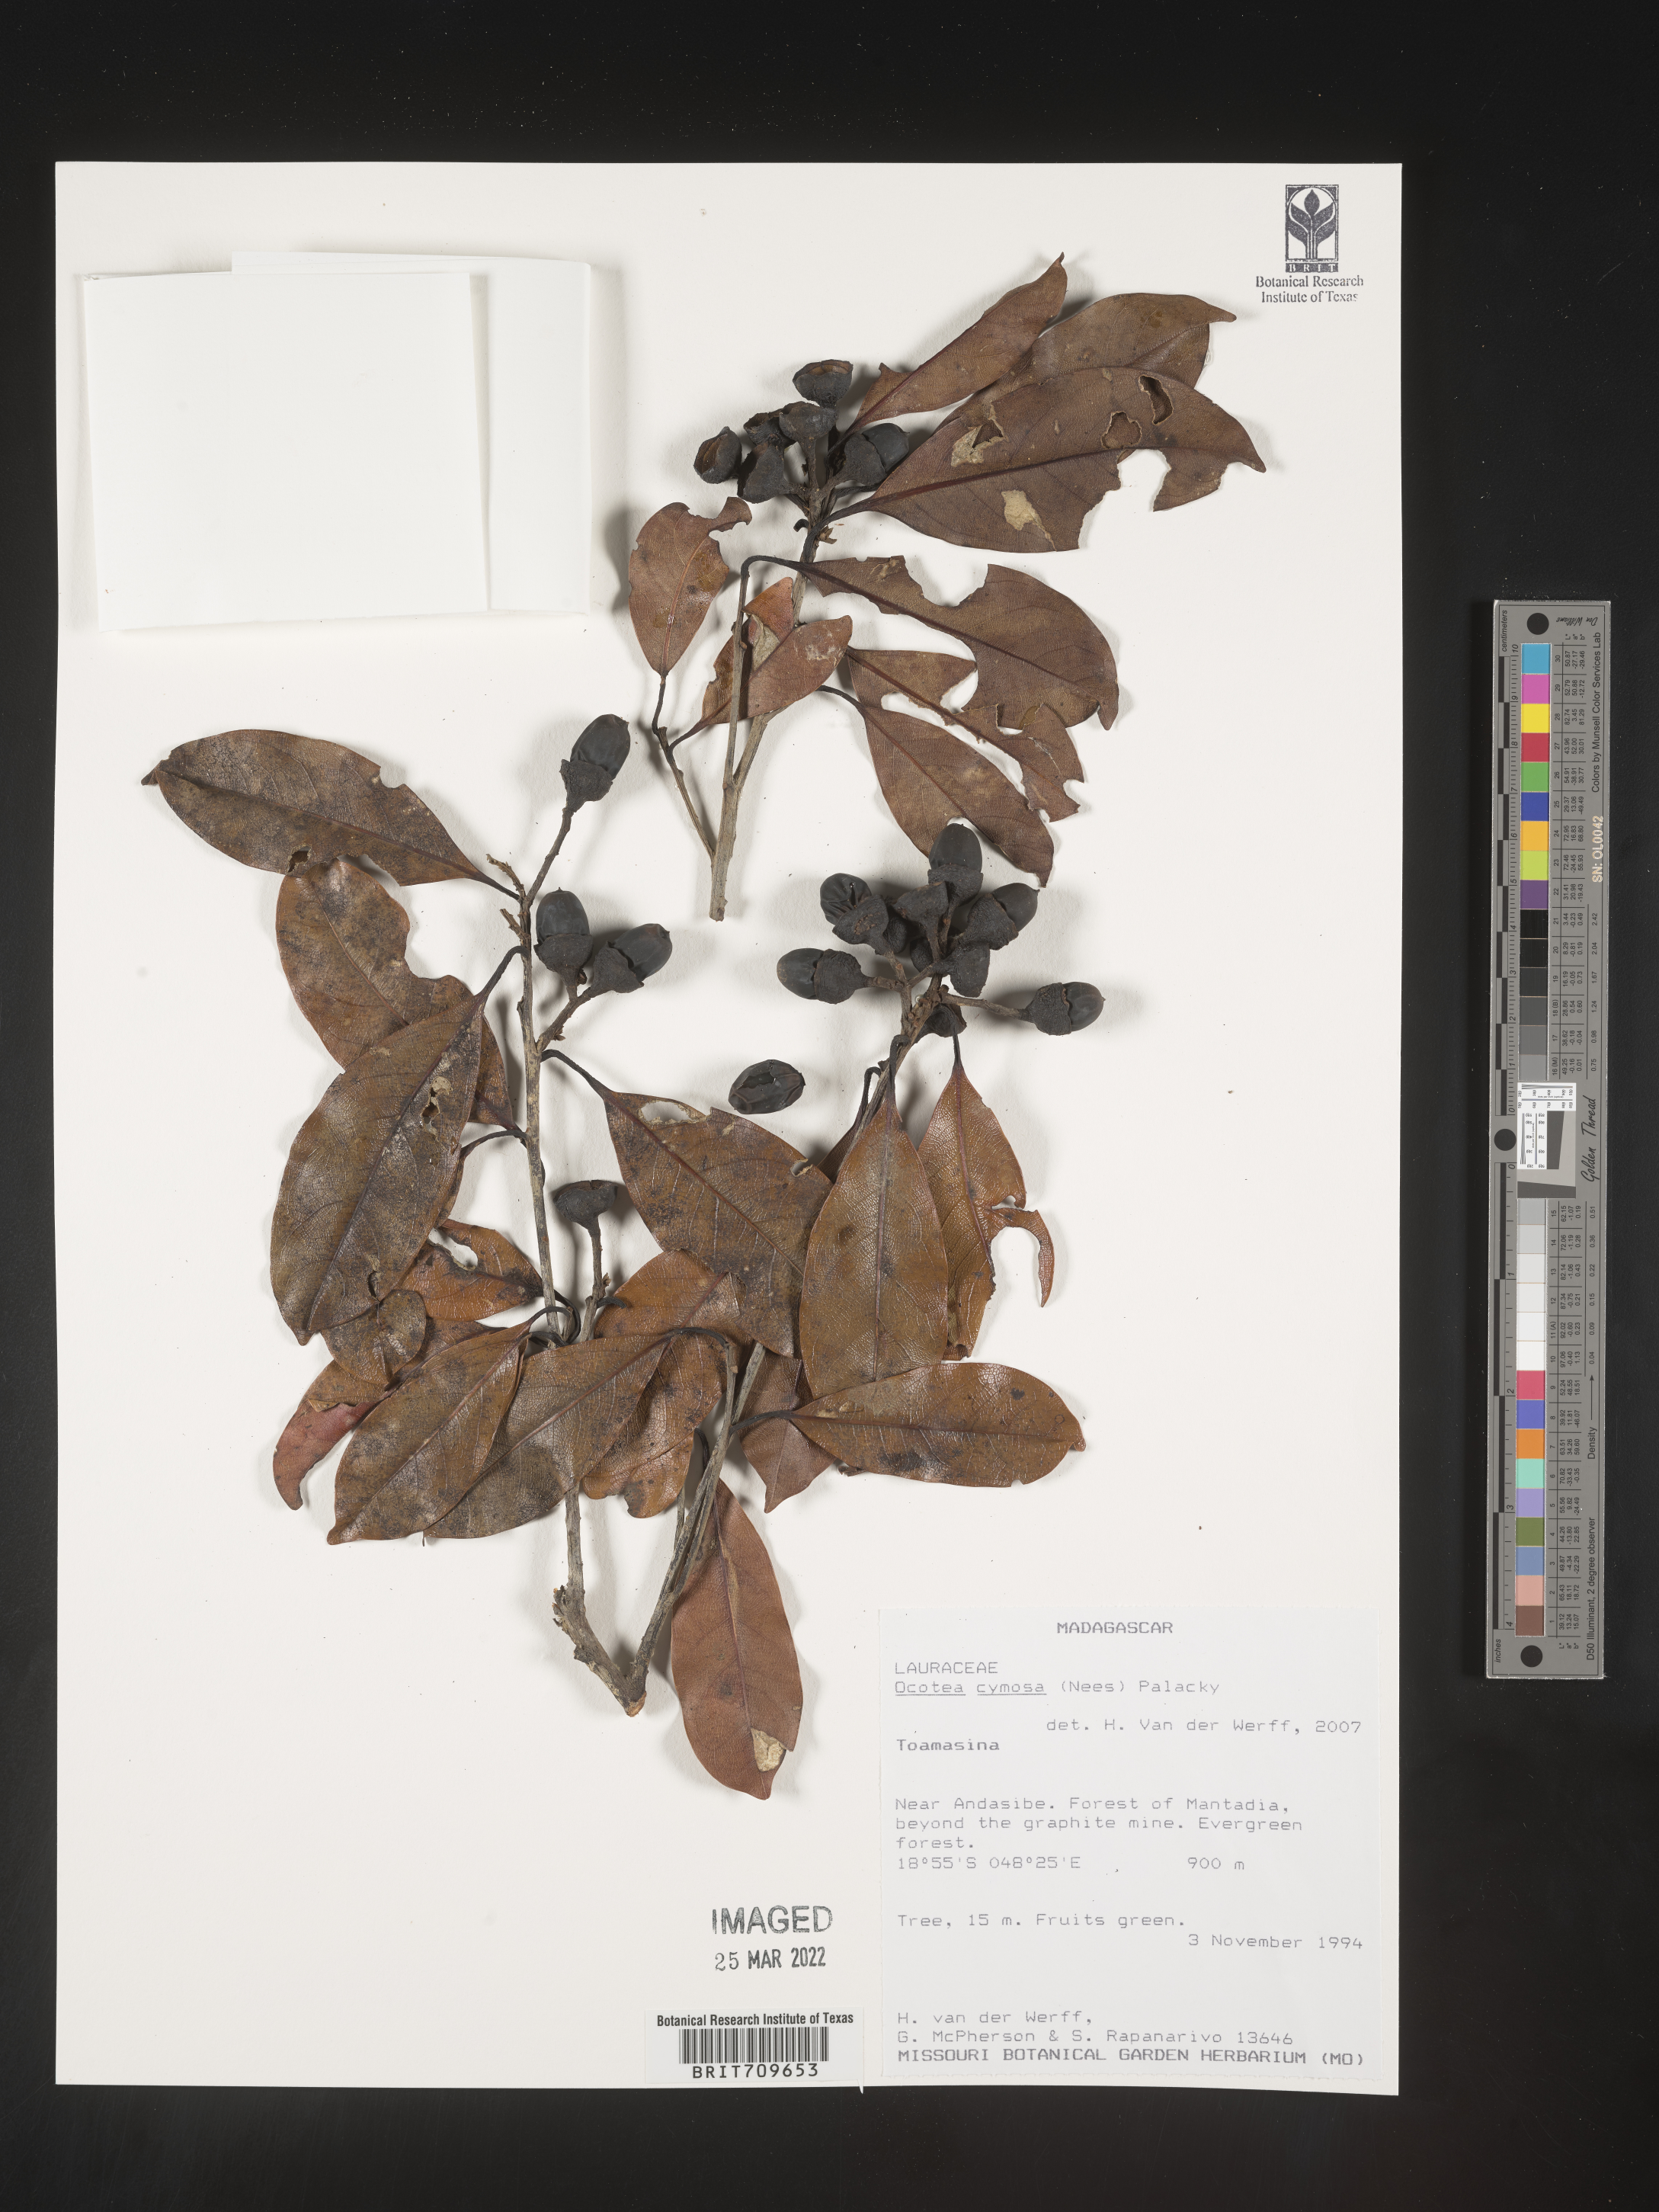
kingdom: Plantae
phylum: Tracheophyta
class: Magnoliopsida
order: Laurales
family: Lauraceae
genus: Ocotea
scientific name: Ocotea
